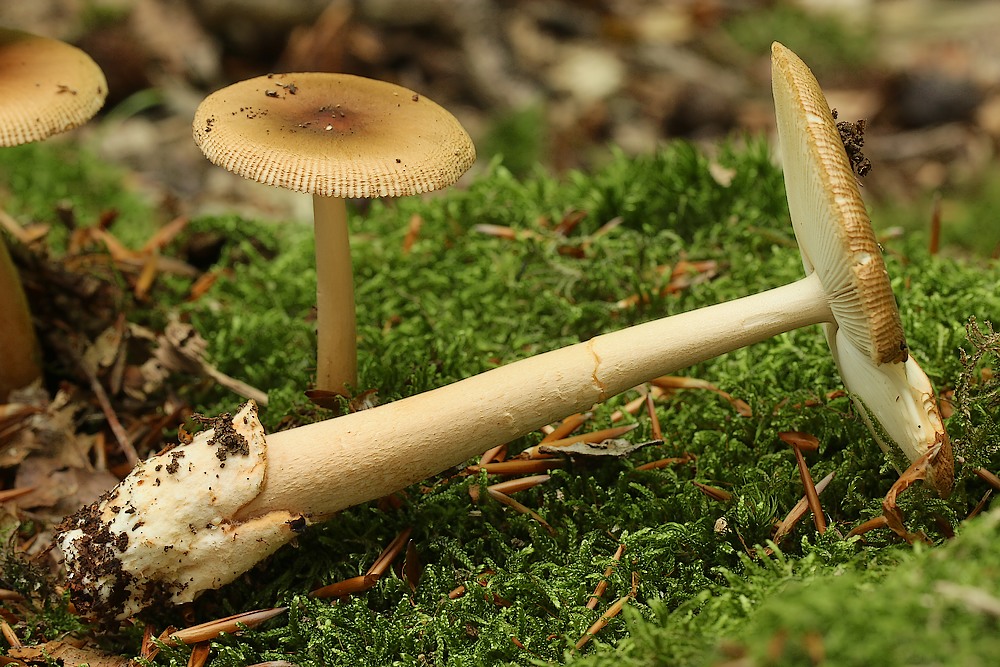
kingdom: Fungi
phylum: Basidiomycota
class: Agaricomycetes
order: Agaricales
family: Amanitaceae
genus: Amanita
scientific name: Amanita fulva
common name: brun kam-fluesvamp
